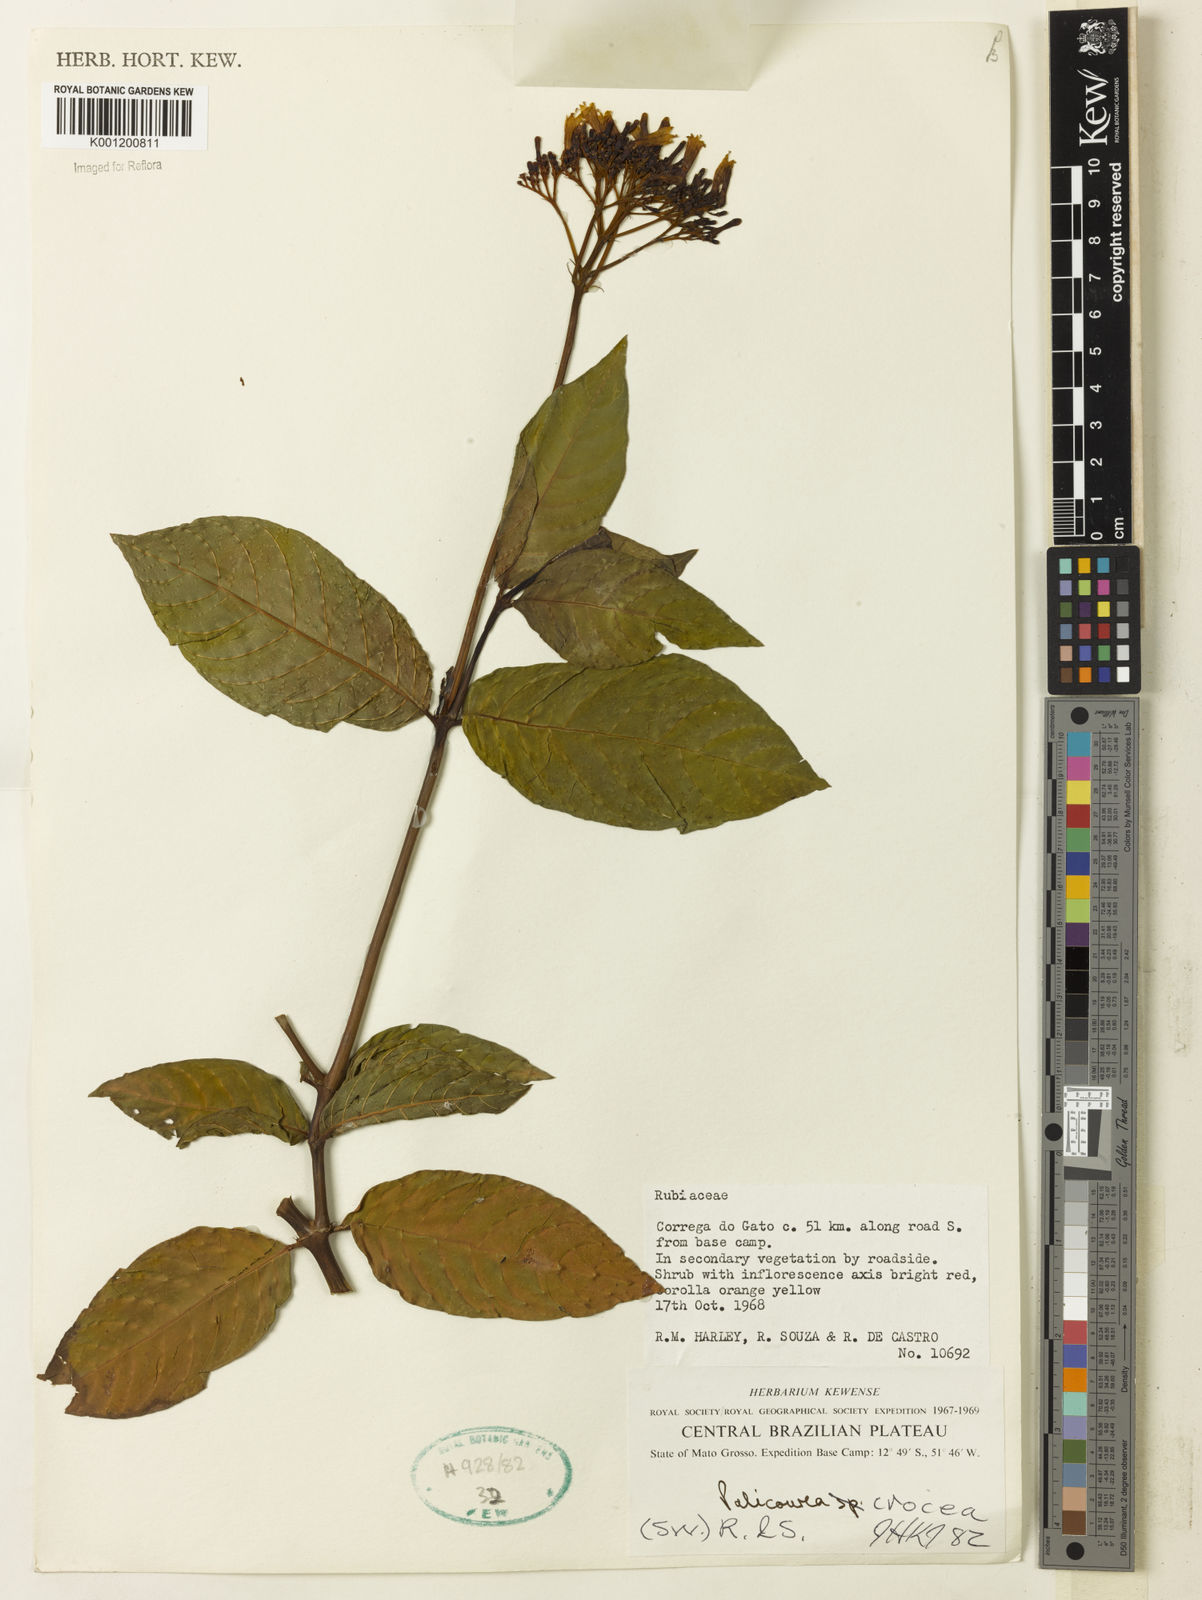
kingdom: Plantae
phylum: Tracheophyta
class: Magnoliopsida
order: Gentianales
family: Rubiaceae
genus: Palicourea
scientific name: Palicourea crocea
